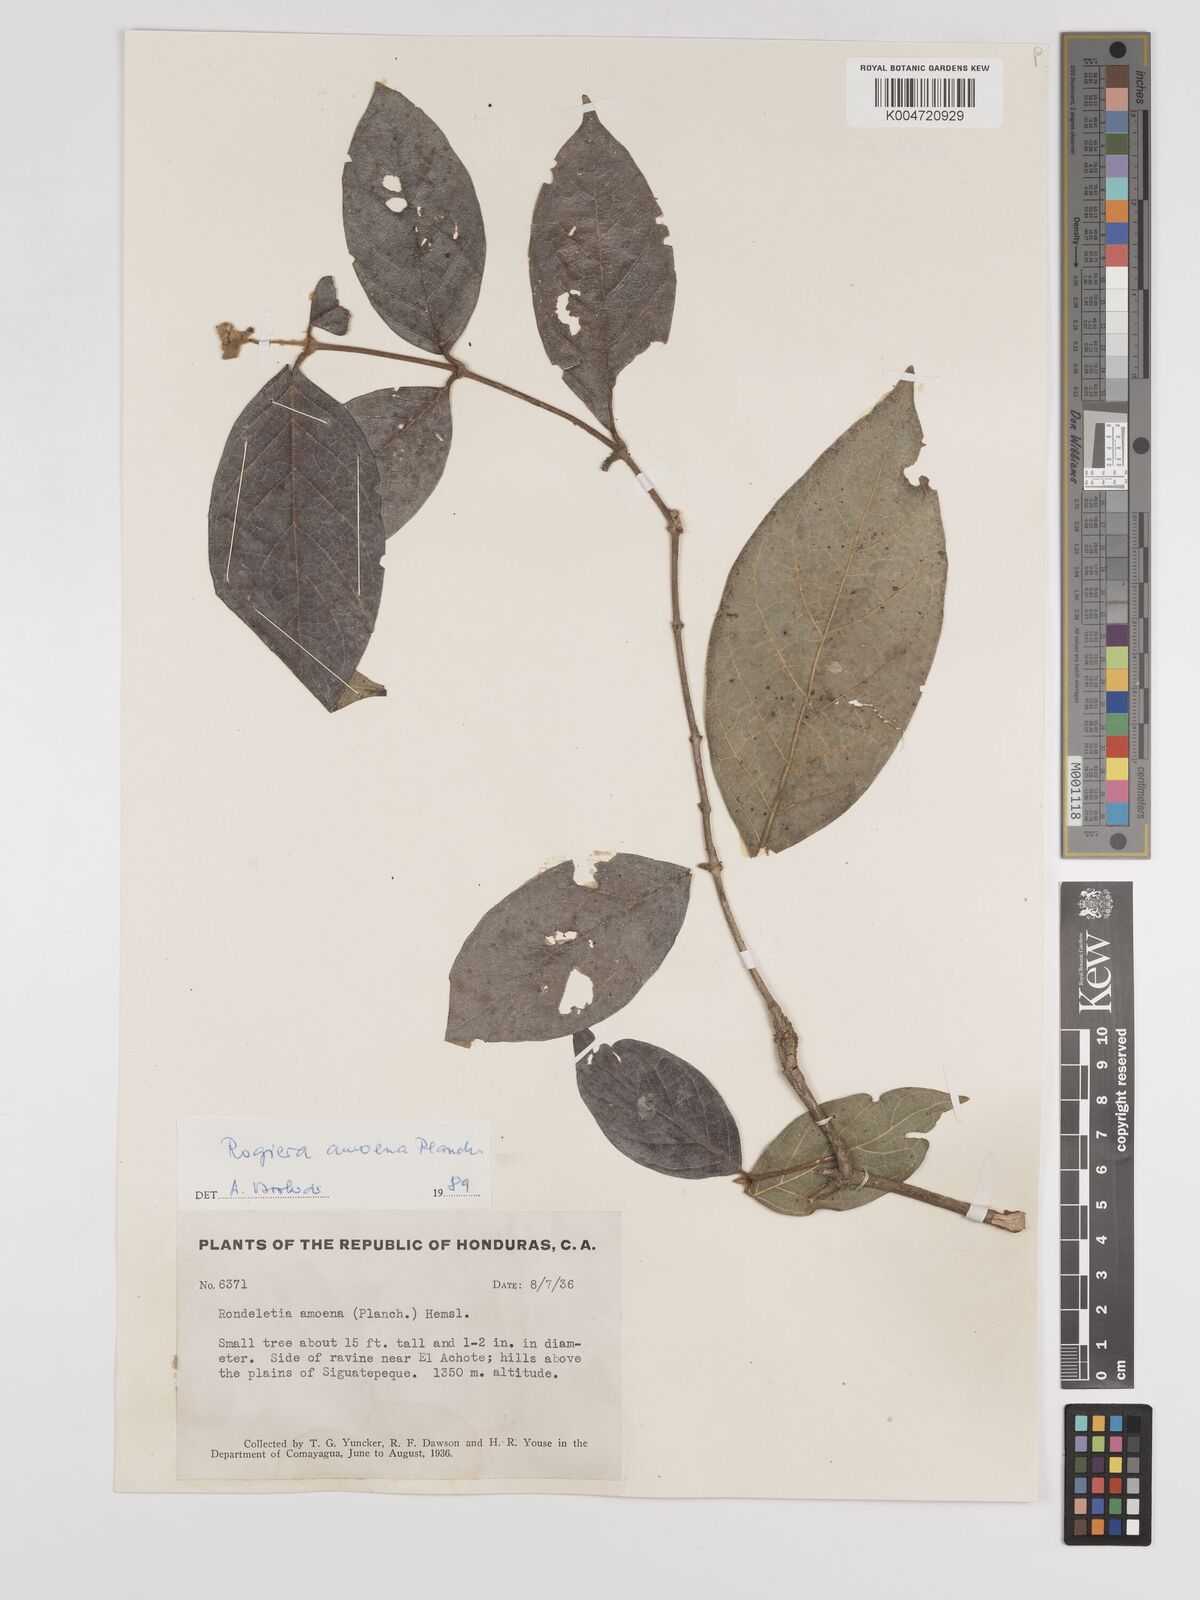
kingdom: Plantae
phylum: Tracheophyta
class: Magnoliopsida
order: Gentianales
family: Rubiaceae
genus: Rogiera
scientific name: Rogiera amoena
